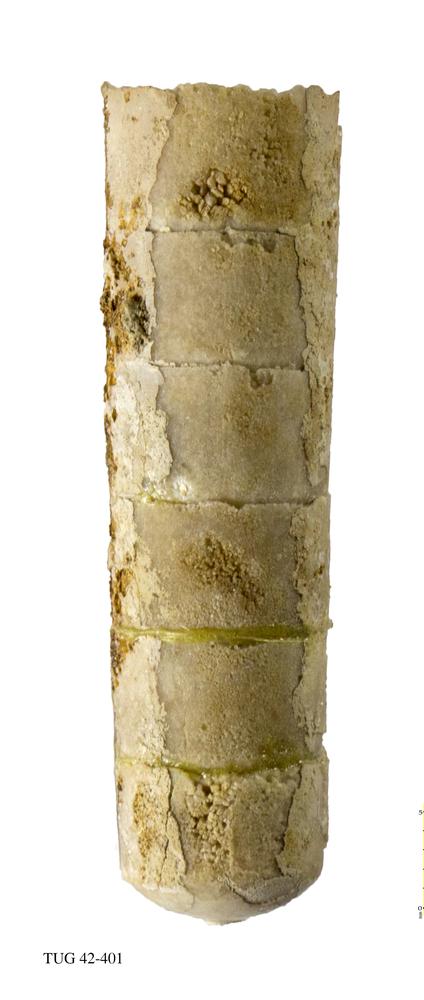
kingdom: Animalia
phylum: Mollusca
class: Cephalopoda
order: Orthocerida
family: Orthoceratidae
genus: Orthoceras
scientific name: Orthoceras regulare
